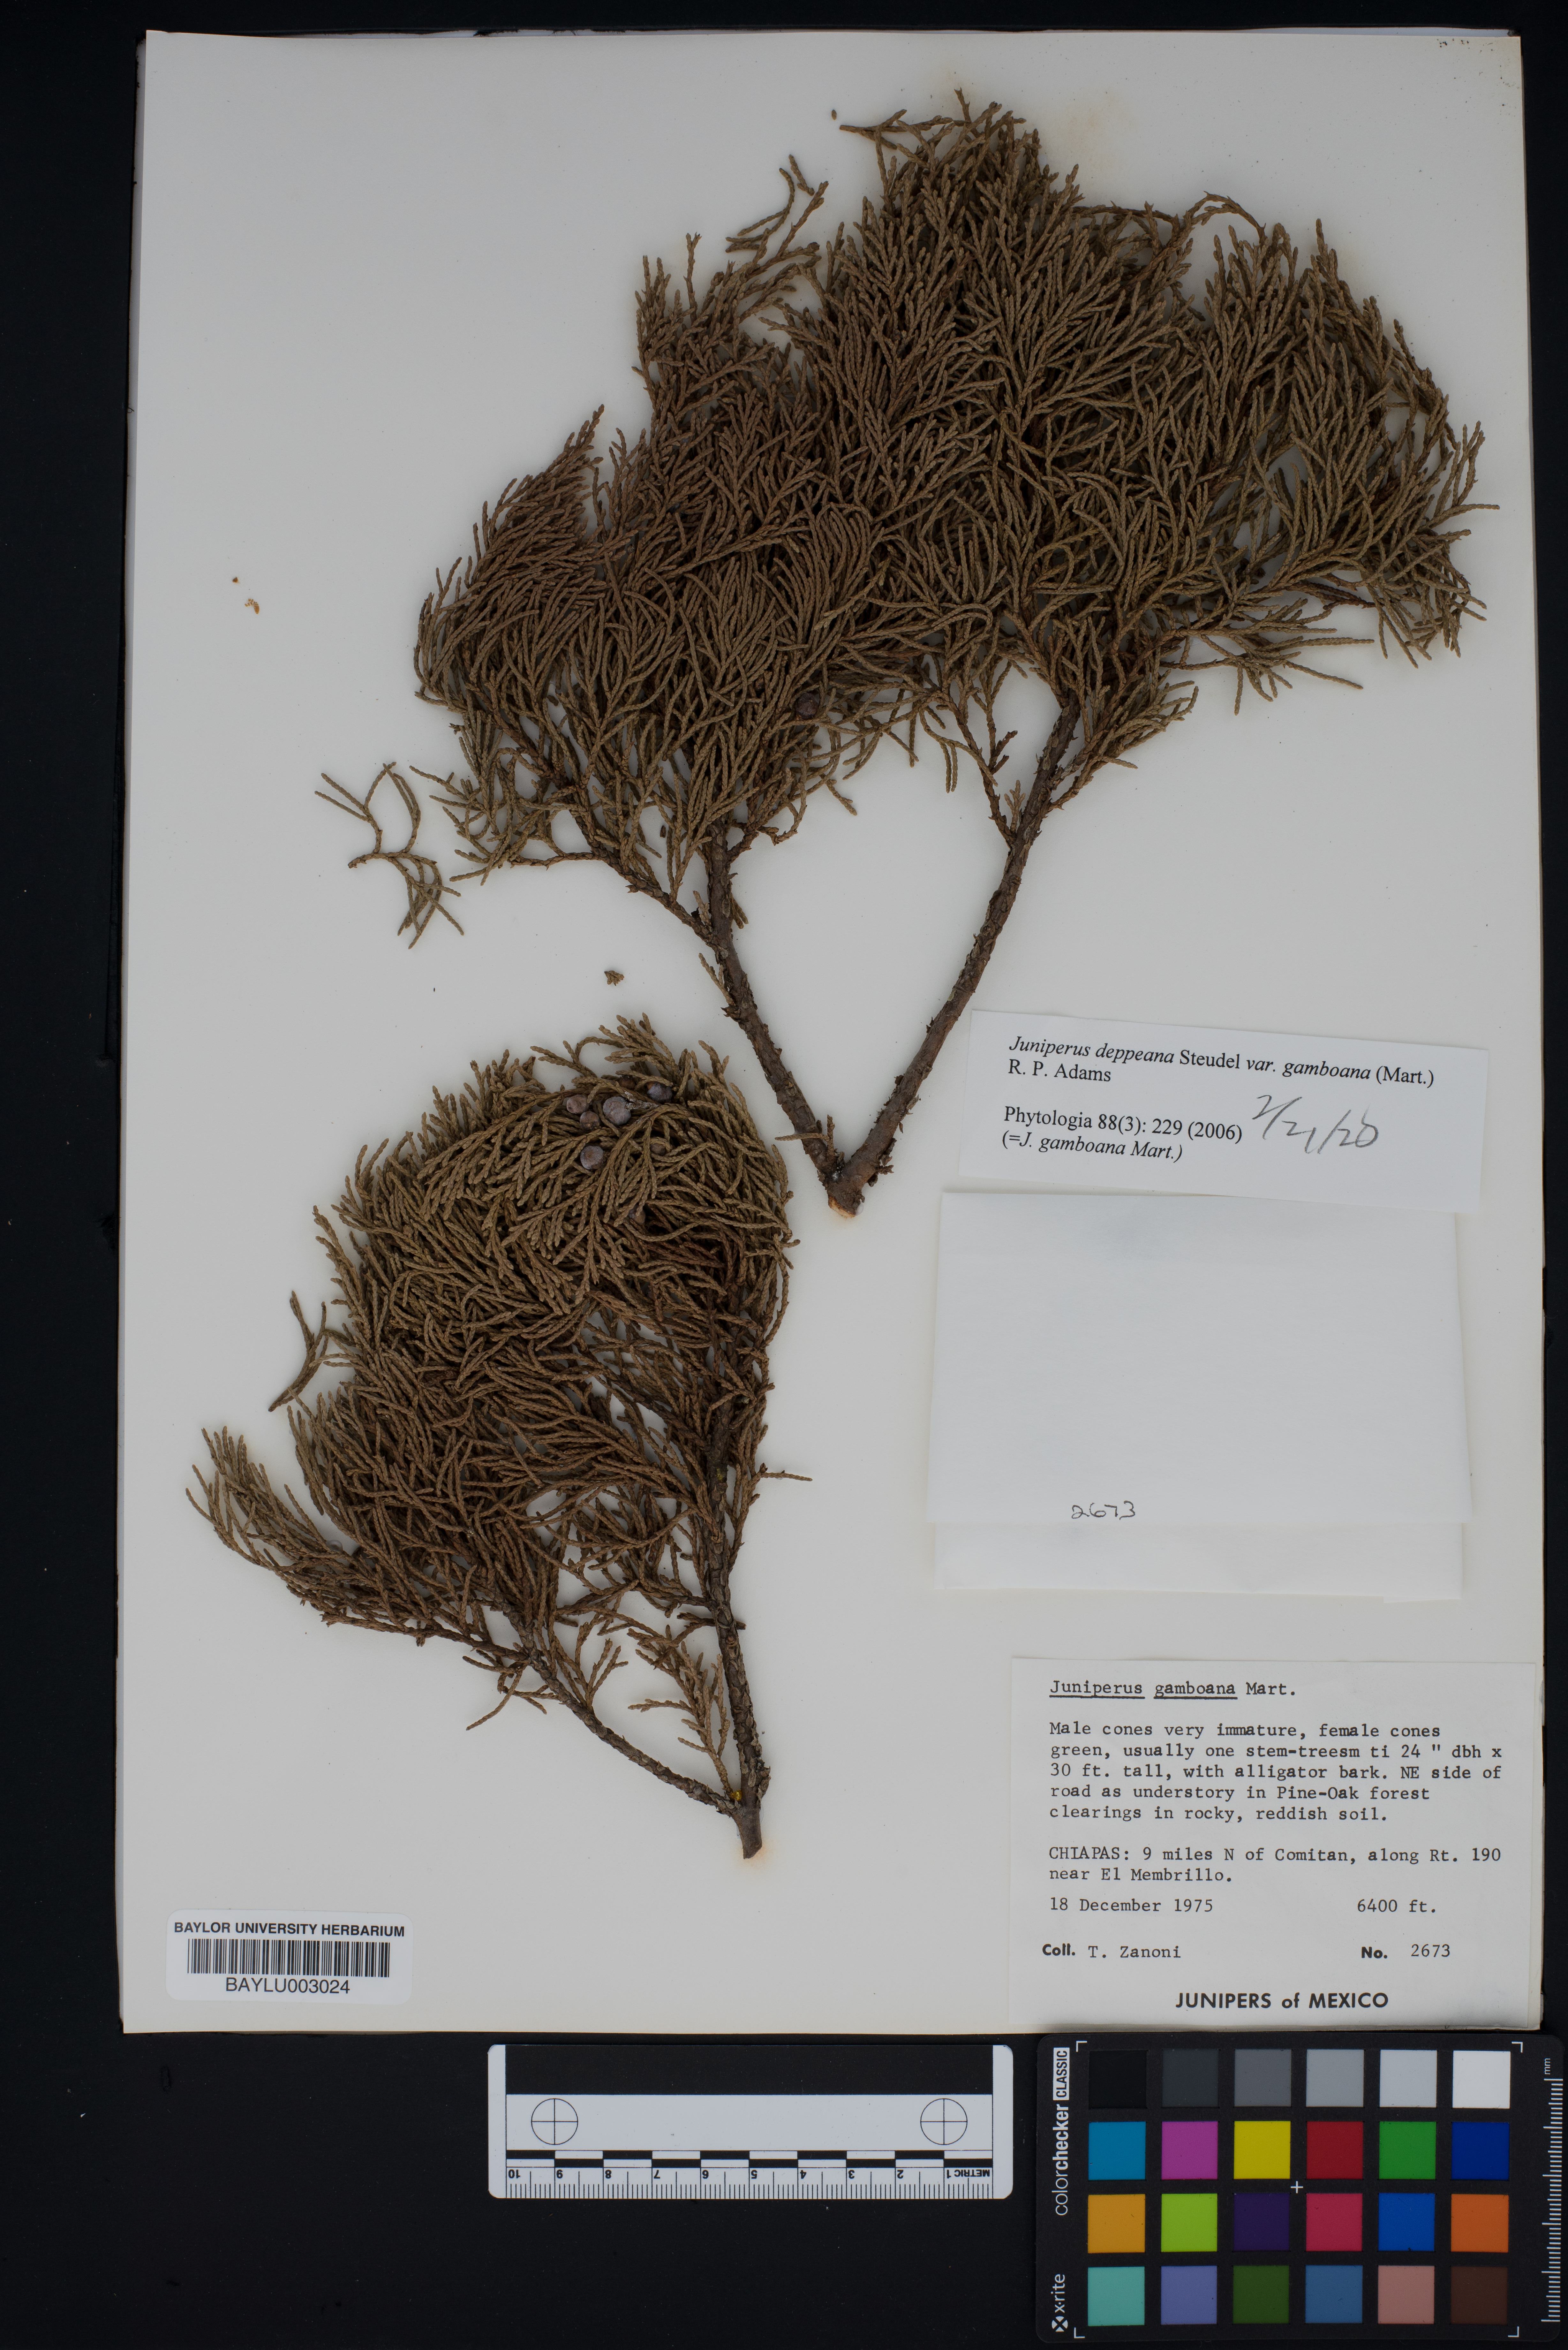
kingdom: Plantae
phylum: Tracheophyta
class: Pinopsida
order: Pinales
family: Cupressaceae
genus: Juniperus
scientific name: Juniperus gamboana
